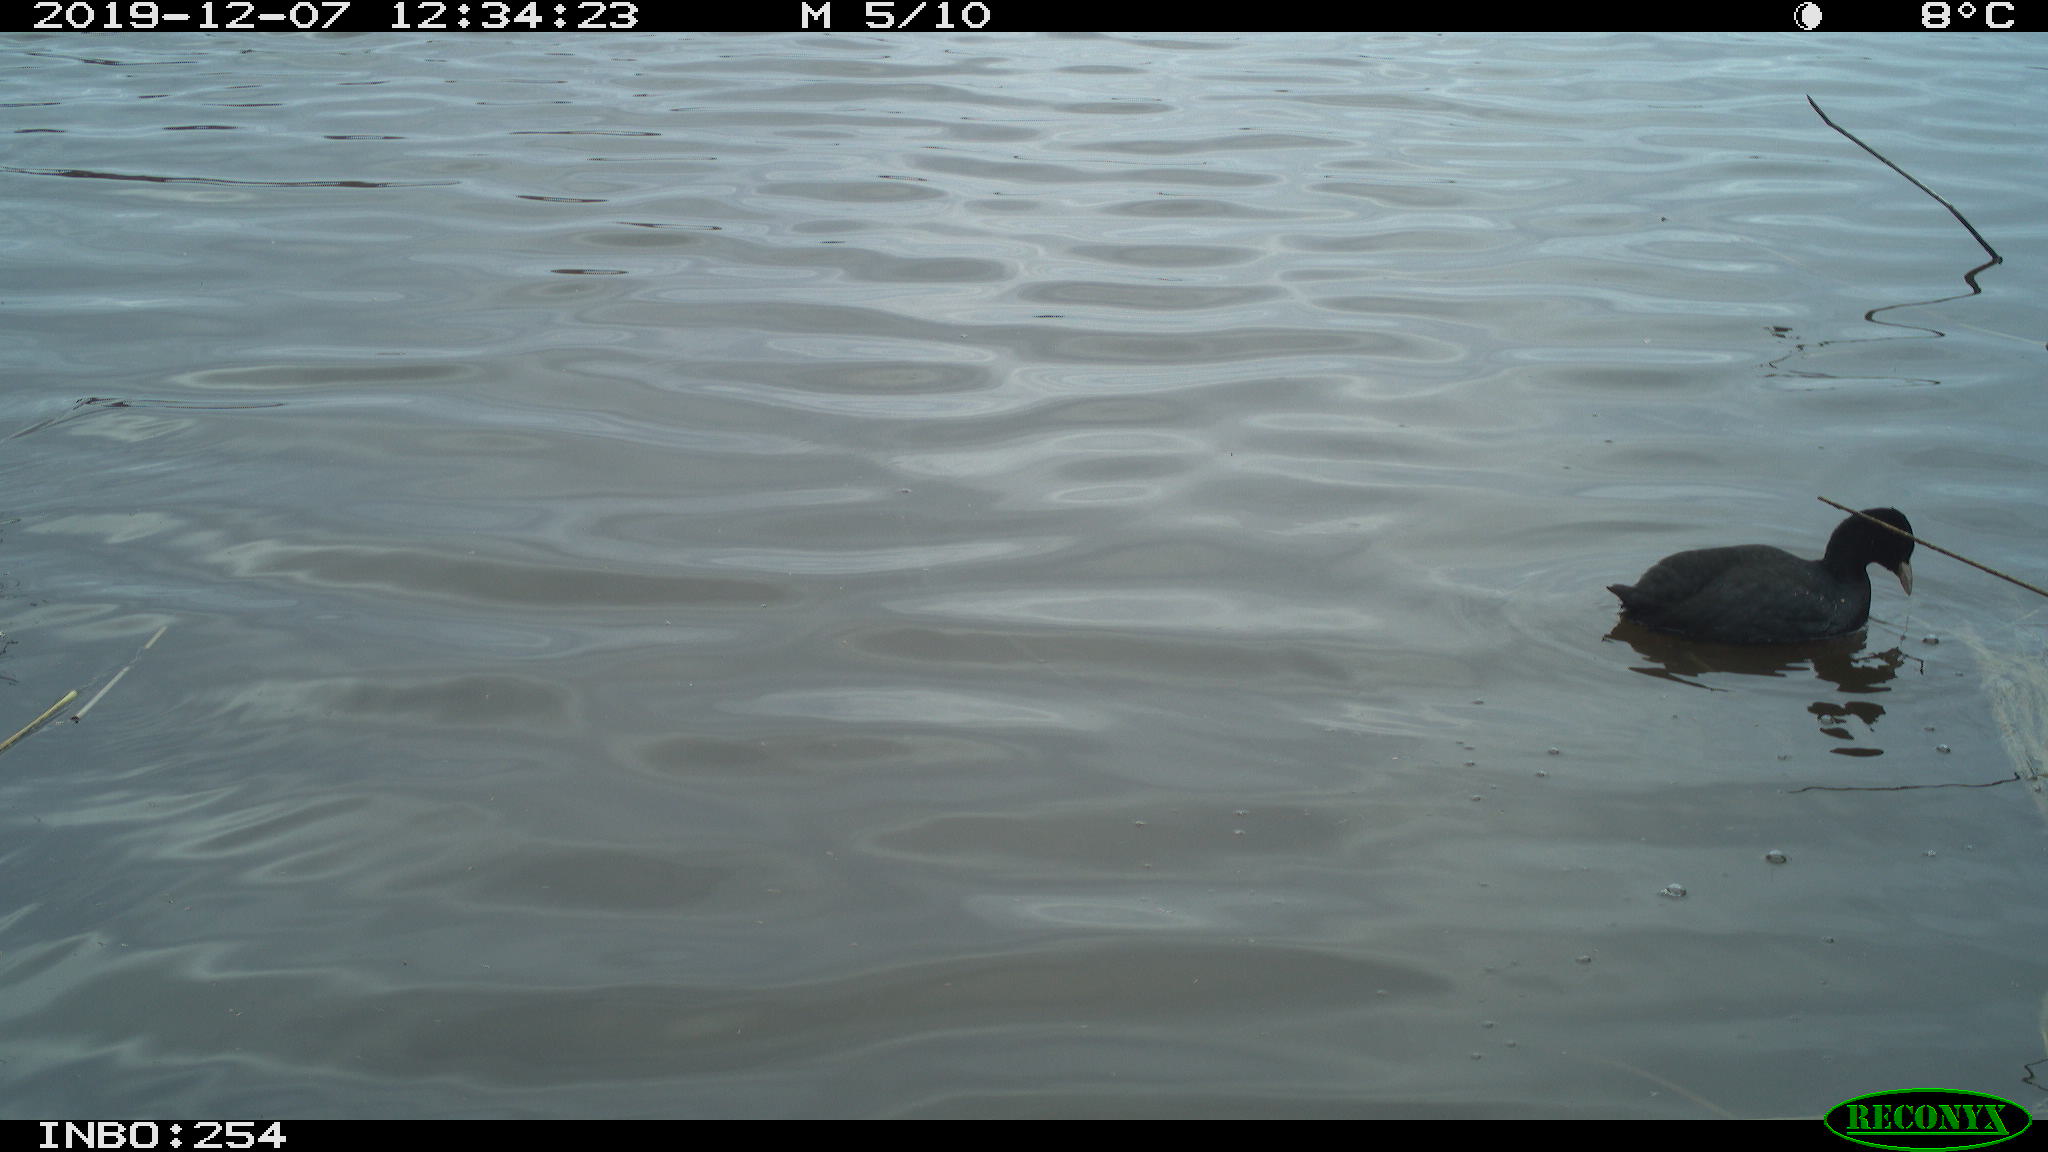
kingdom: Animalia
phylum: Chordata
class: Aves
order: Gruiformes
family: Rallidae
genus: Fulica
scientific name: Fulica atra
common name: Eurasian coot
